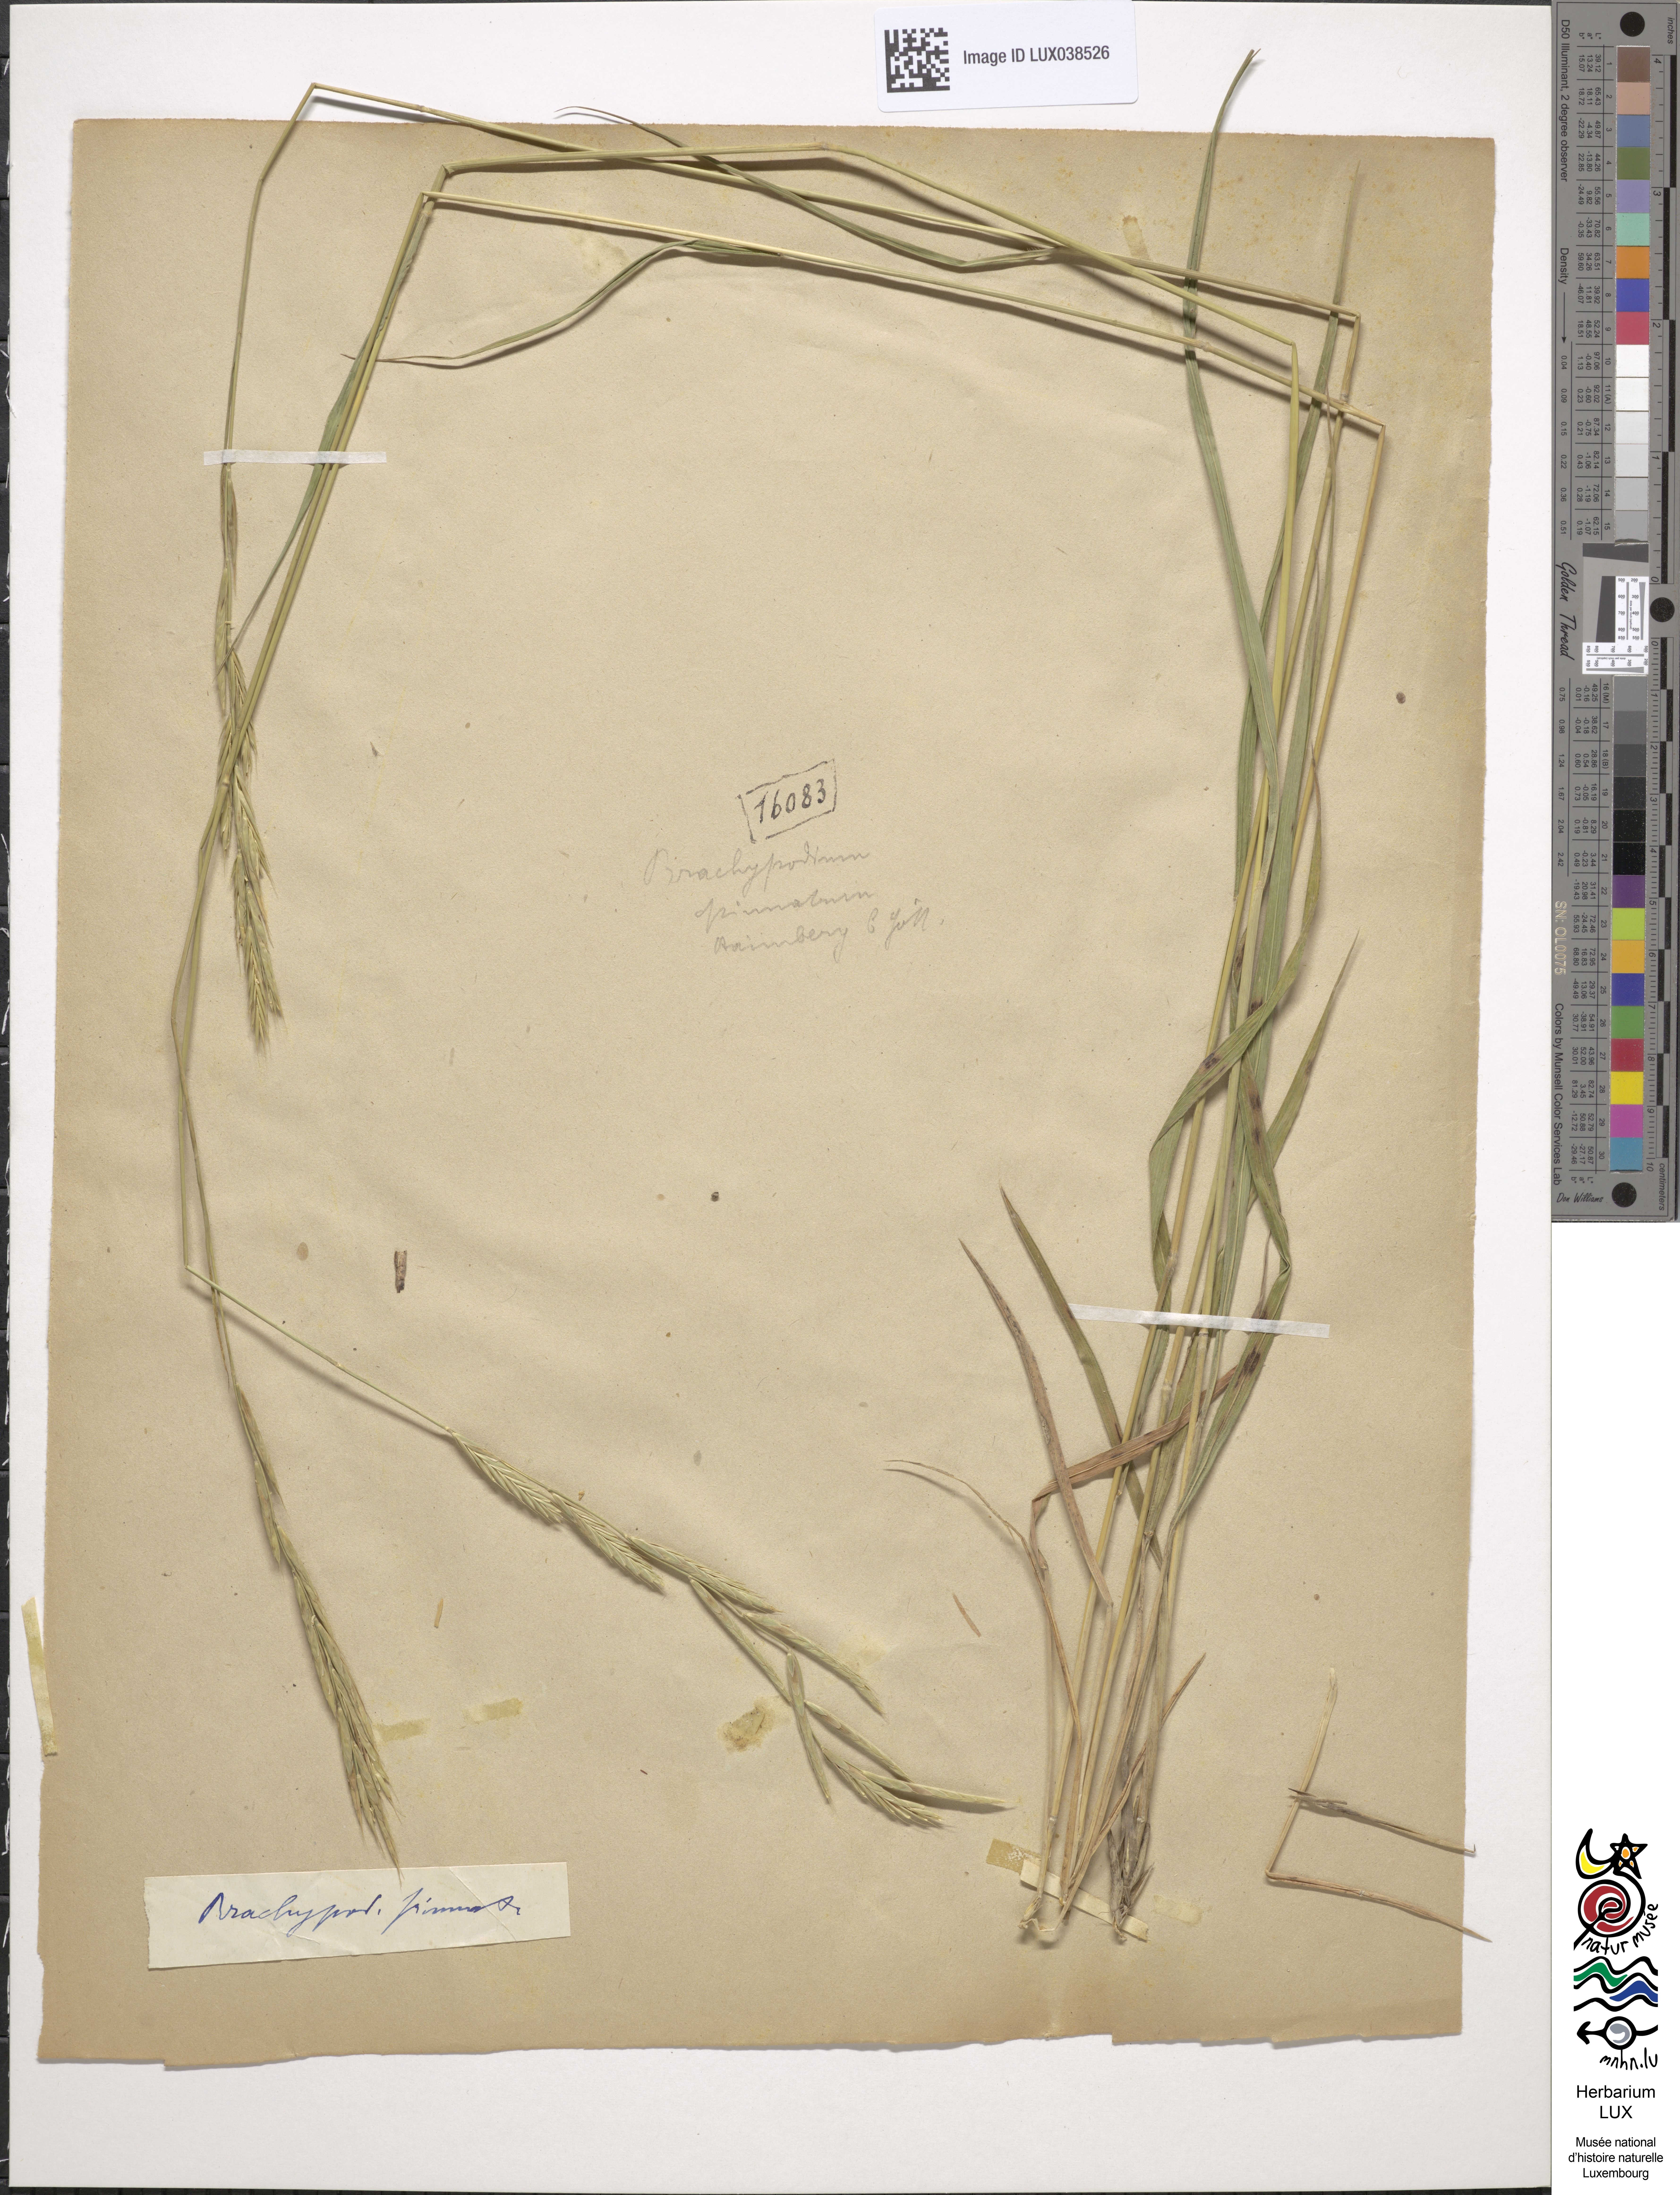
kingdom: Plantae
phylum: Tracheophyta
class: Liliopsida
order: Poales
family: Poaceae
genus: Brachypodium
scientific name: Brachypodium pinnatum
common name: Tor grass
